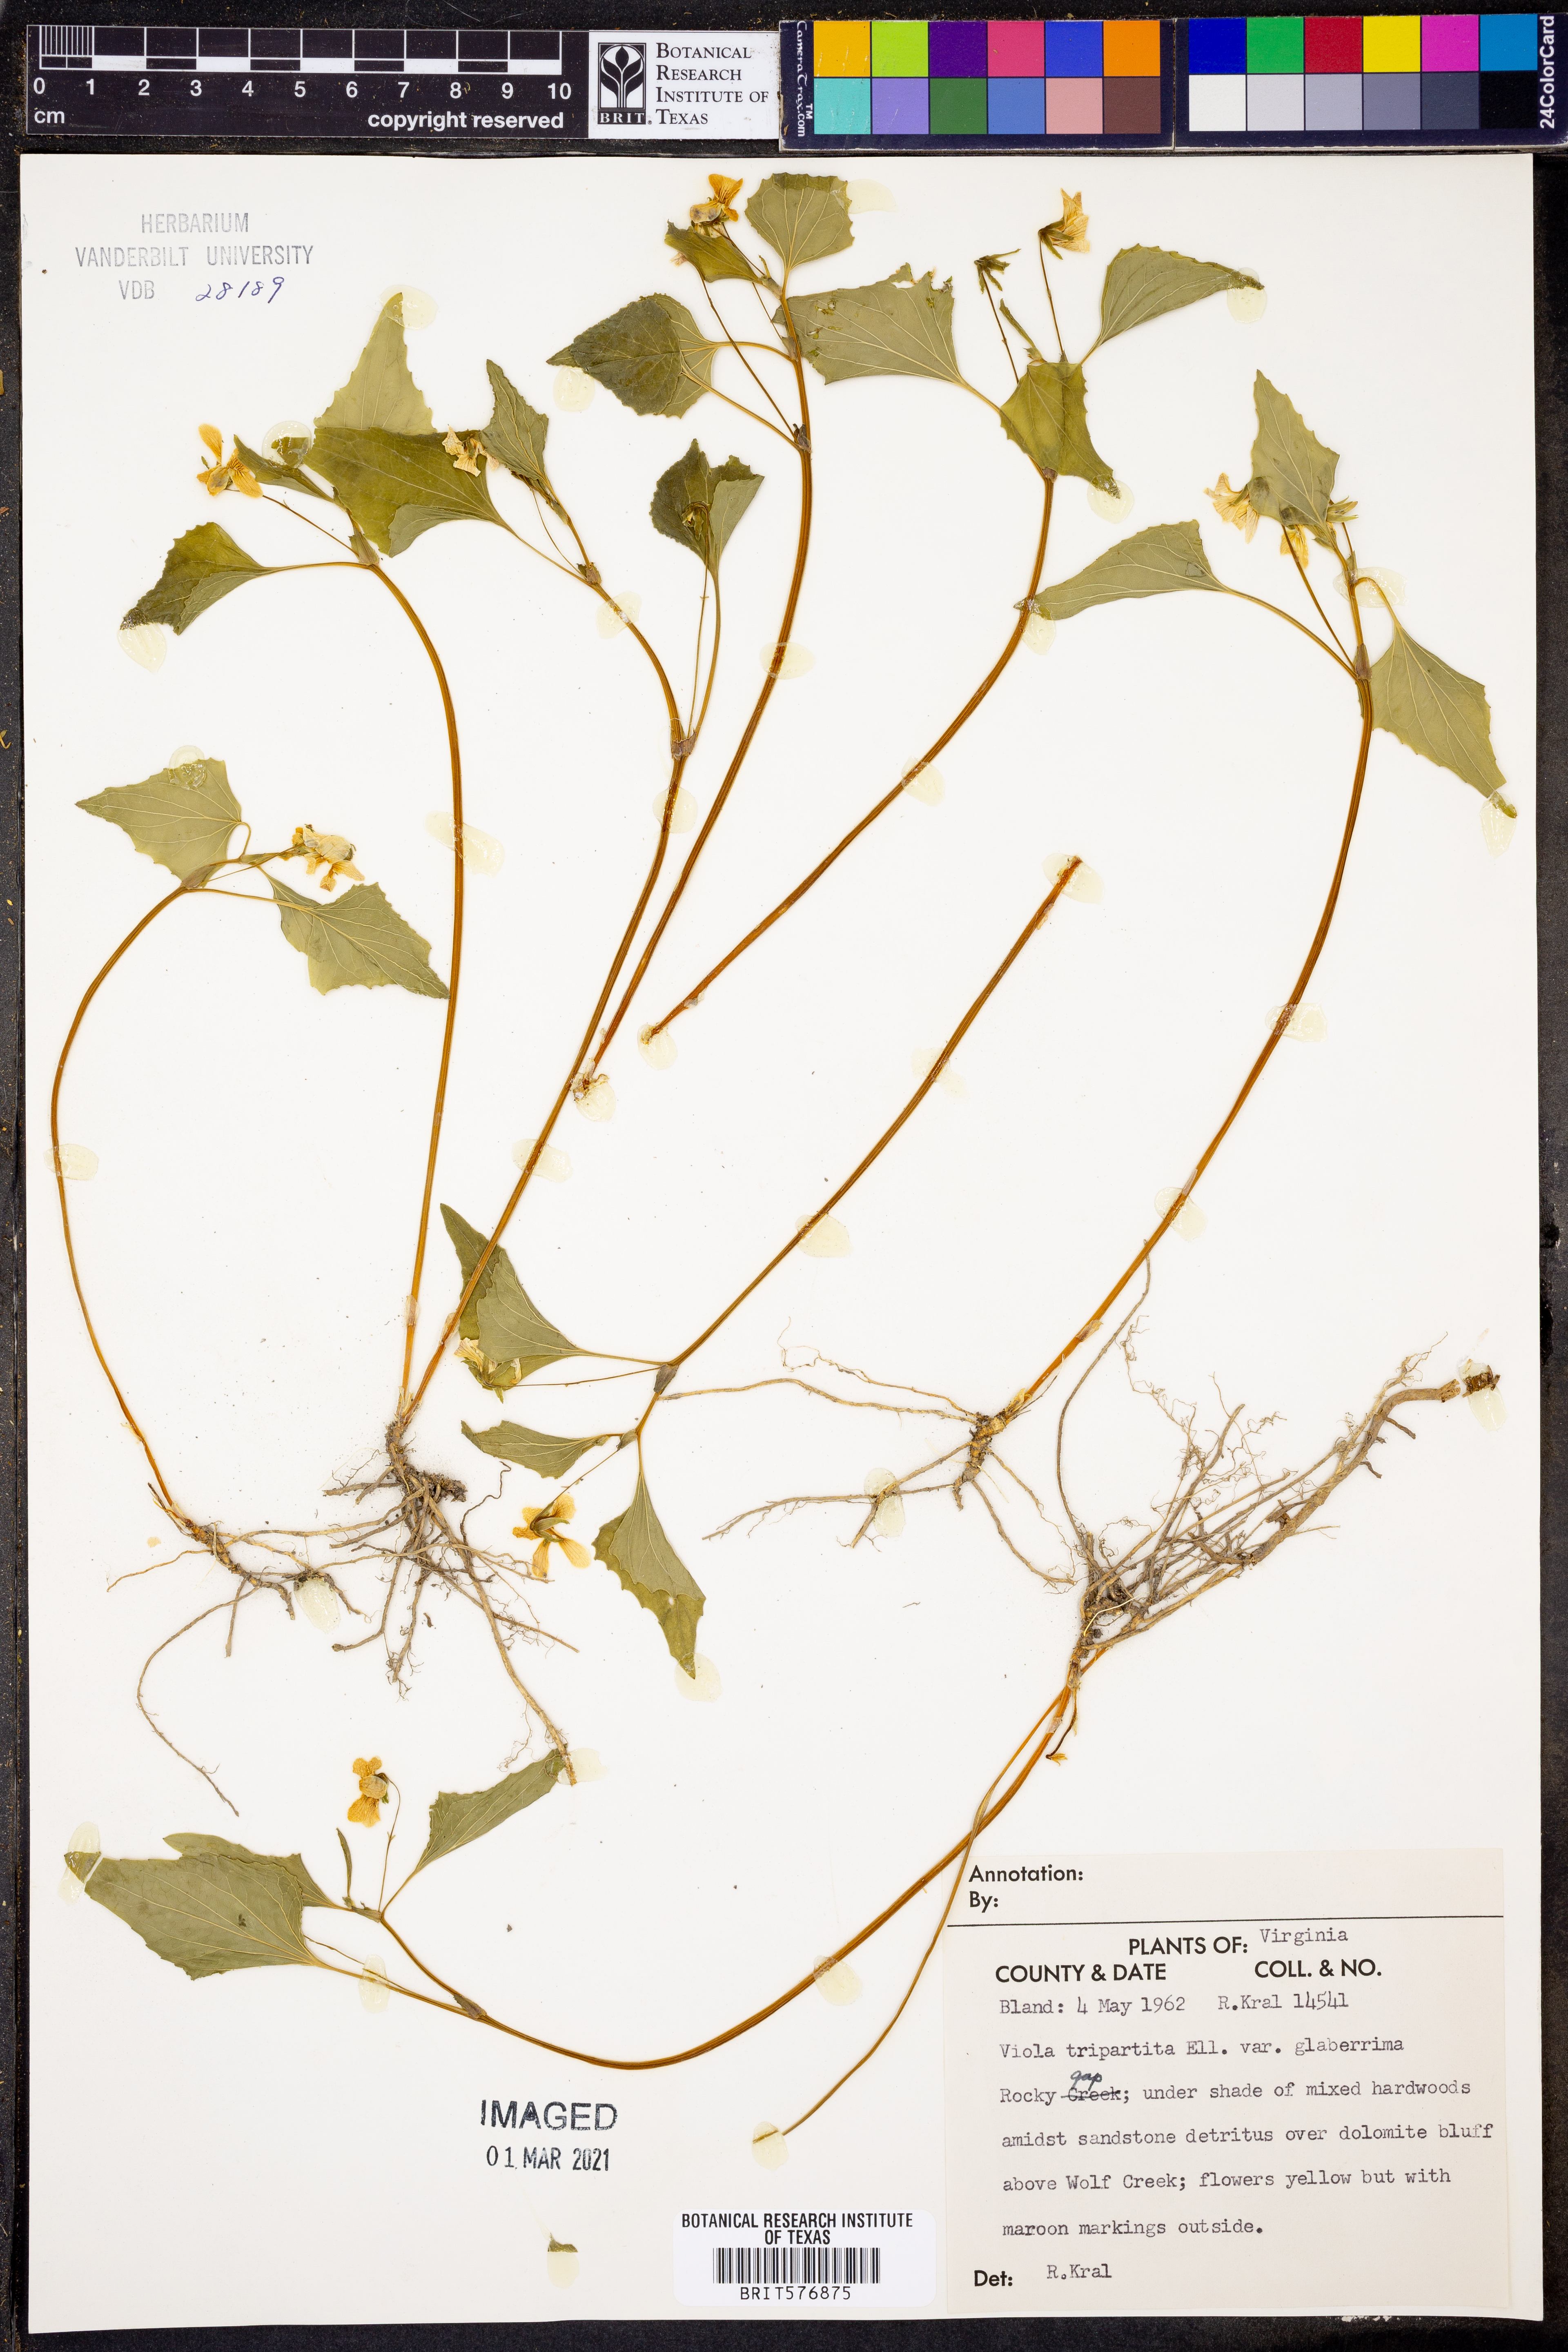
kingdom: Plantae
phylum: Tracheophyta
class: Magnoliopsida
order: Malpighiales
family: Violaceae
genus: Viola
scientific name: Viola tripartita
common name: Three-part violet
